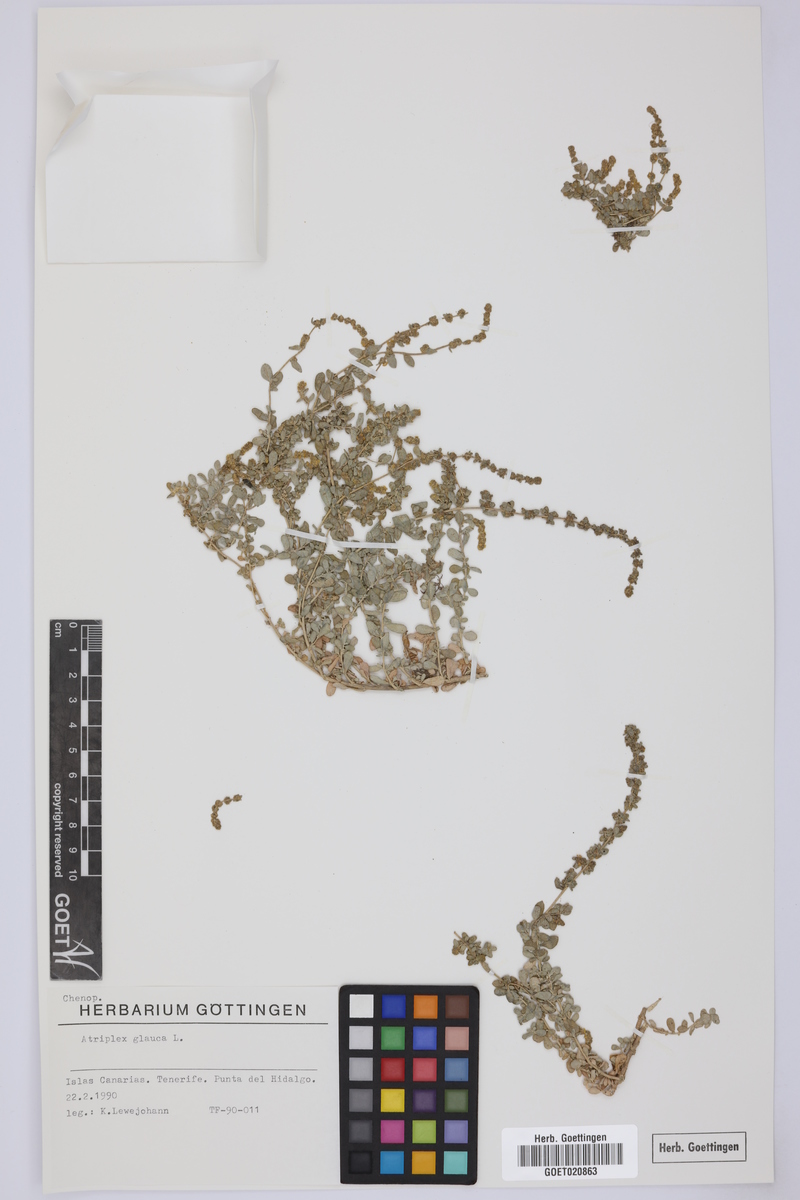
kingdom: Plantae
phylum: Tracheophyta
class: Magnoliopsida
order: Caryophyllales
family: Amaranthaceae
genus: Atriplex
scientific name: Atriplex glauca
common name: Waxy saltbush
